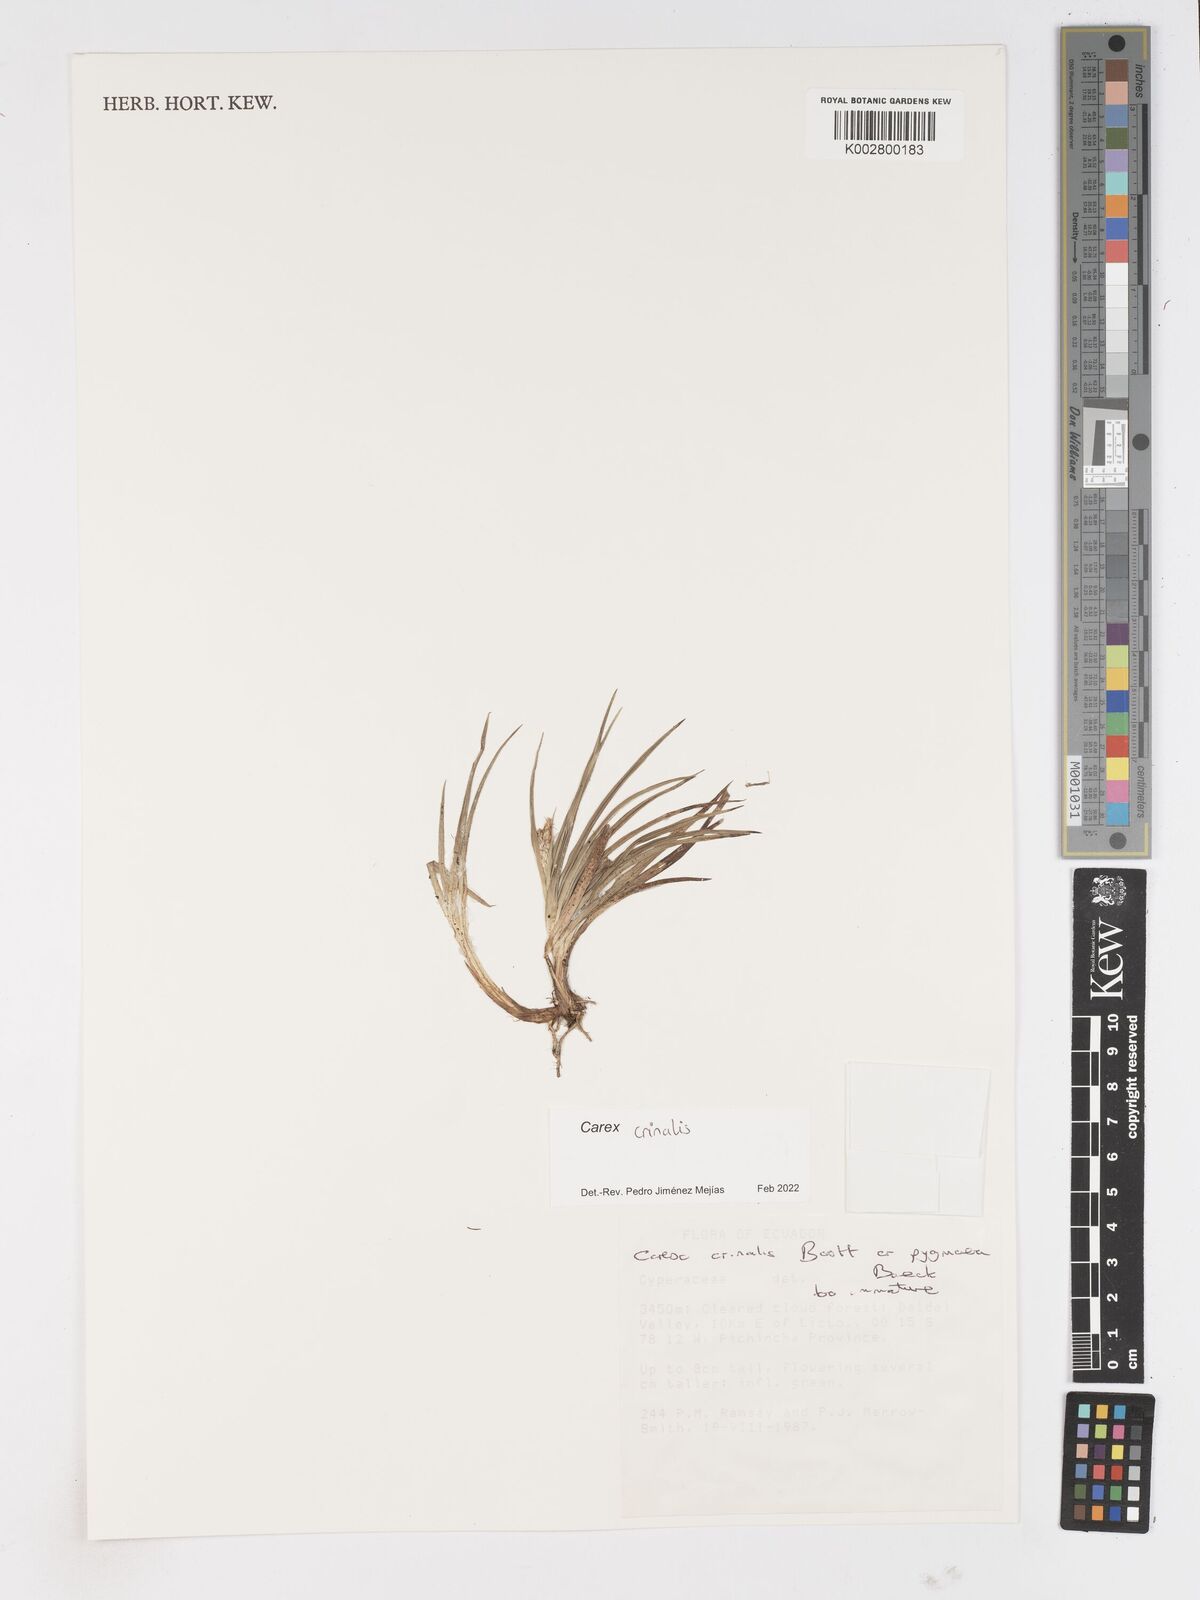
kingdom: Plantae
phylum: Tracheophyta
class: Liliopsida
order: Poales
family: Cyperaceae
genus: Carex
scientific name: Carex crinalis
